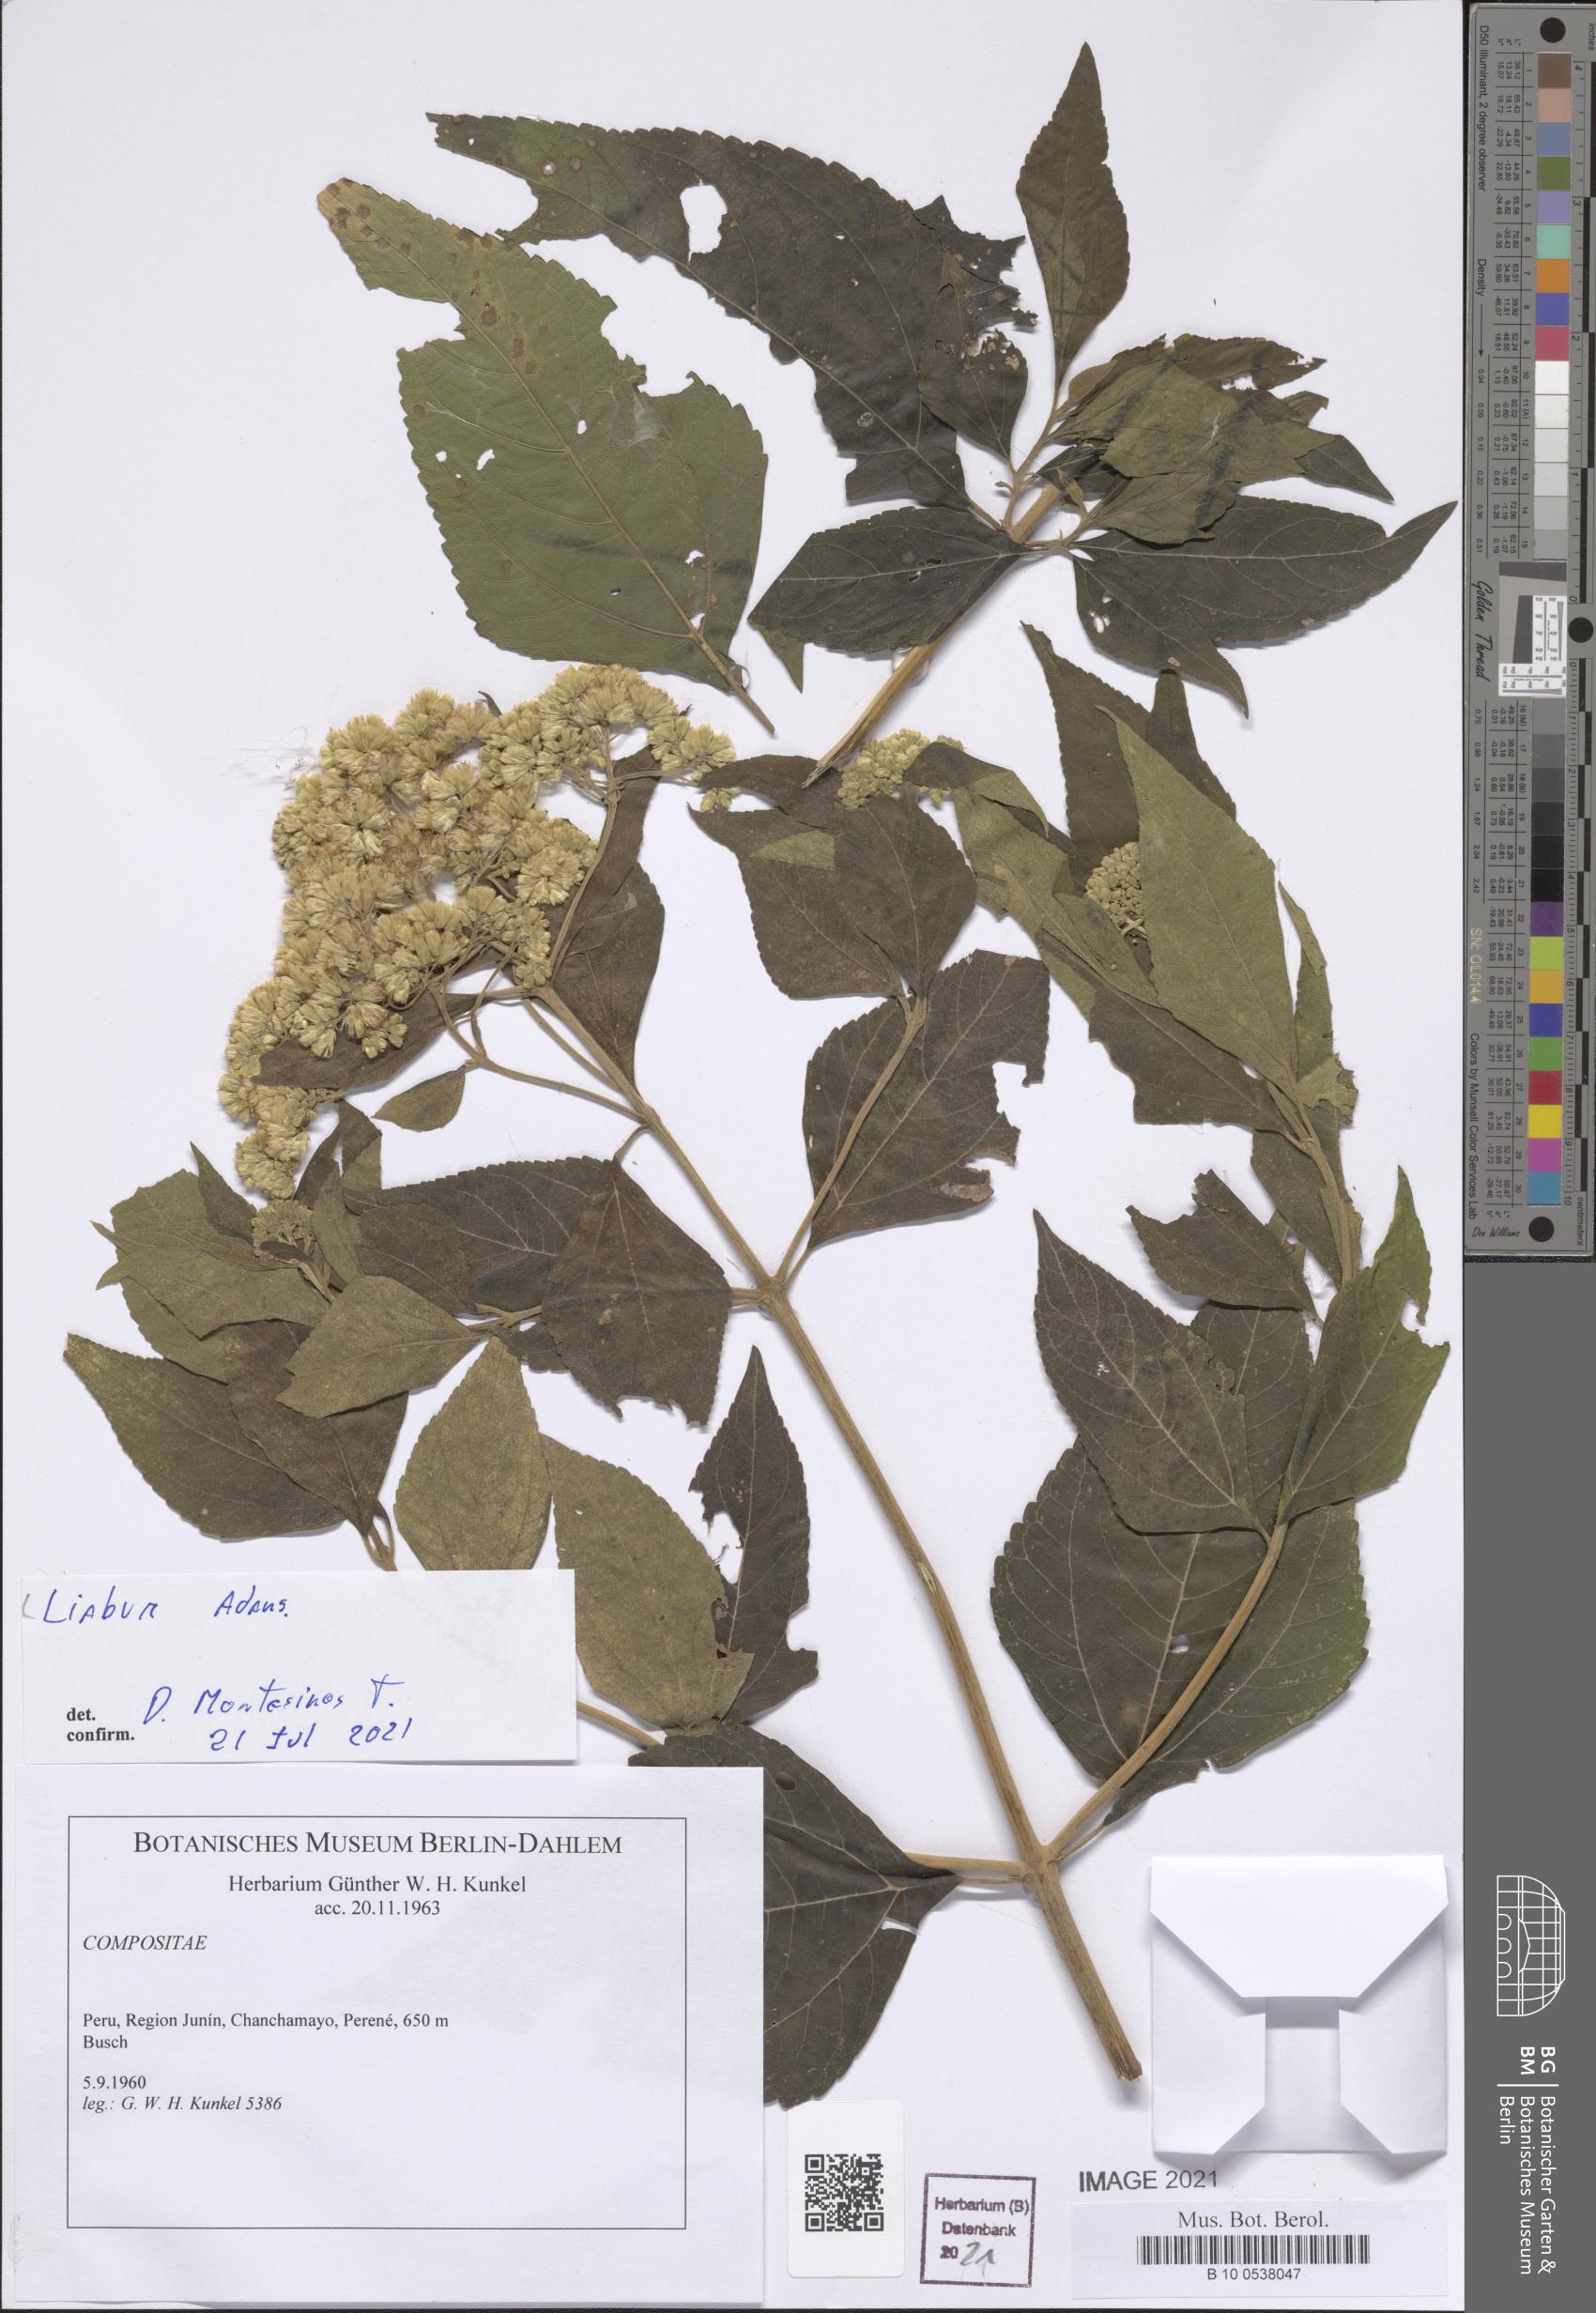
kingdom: Plantae
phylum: Tracheophyta
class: Magnoliopsida
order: Asterales
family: Asteraceae
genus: Liabum
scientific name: Liabum
